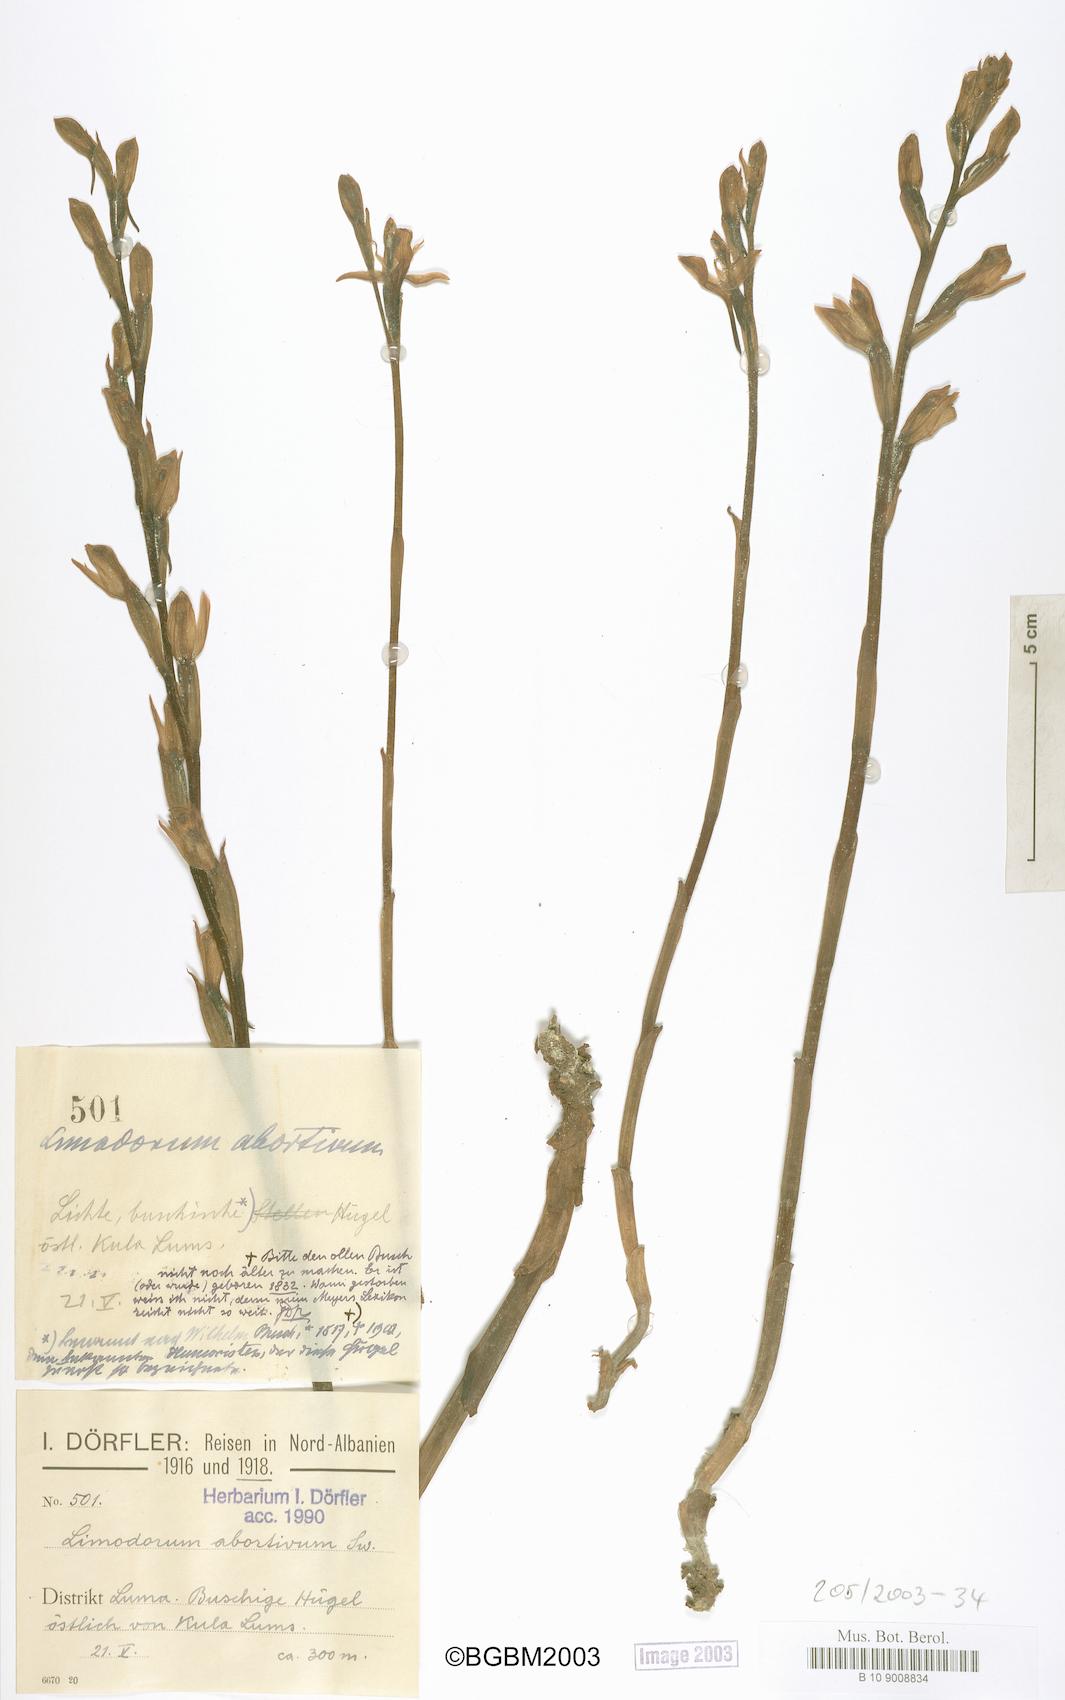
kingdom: Plantae
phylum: Tracheophyta
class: Liliopsida
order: Asparagales
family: Orchidaceae
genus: Limodorum
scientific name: Limodorum abortivum
